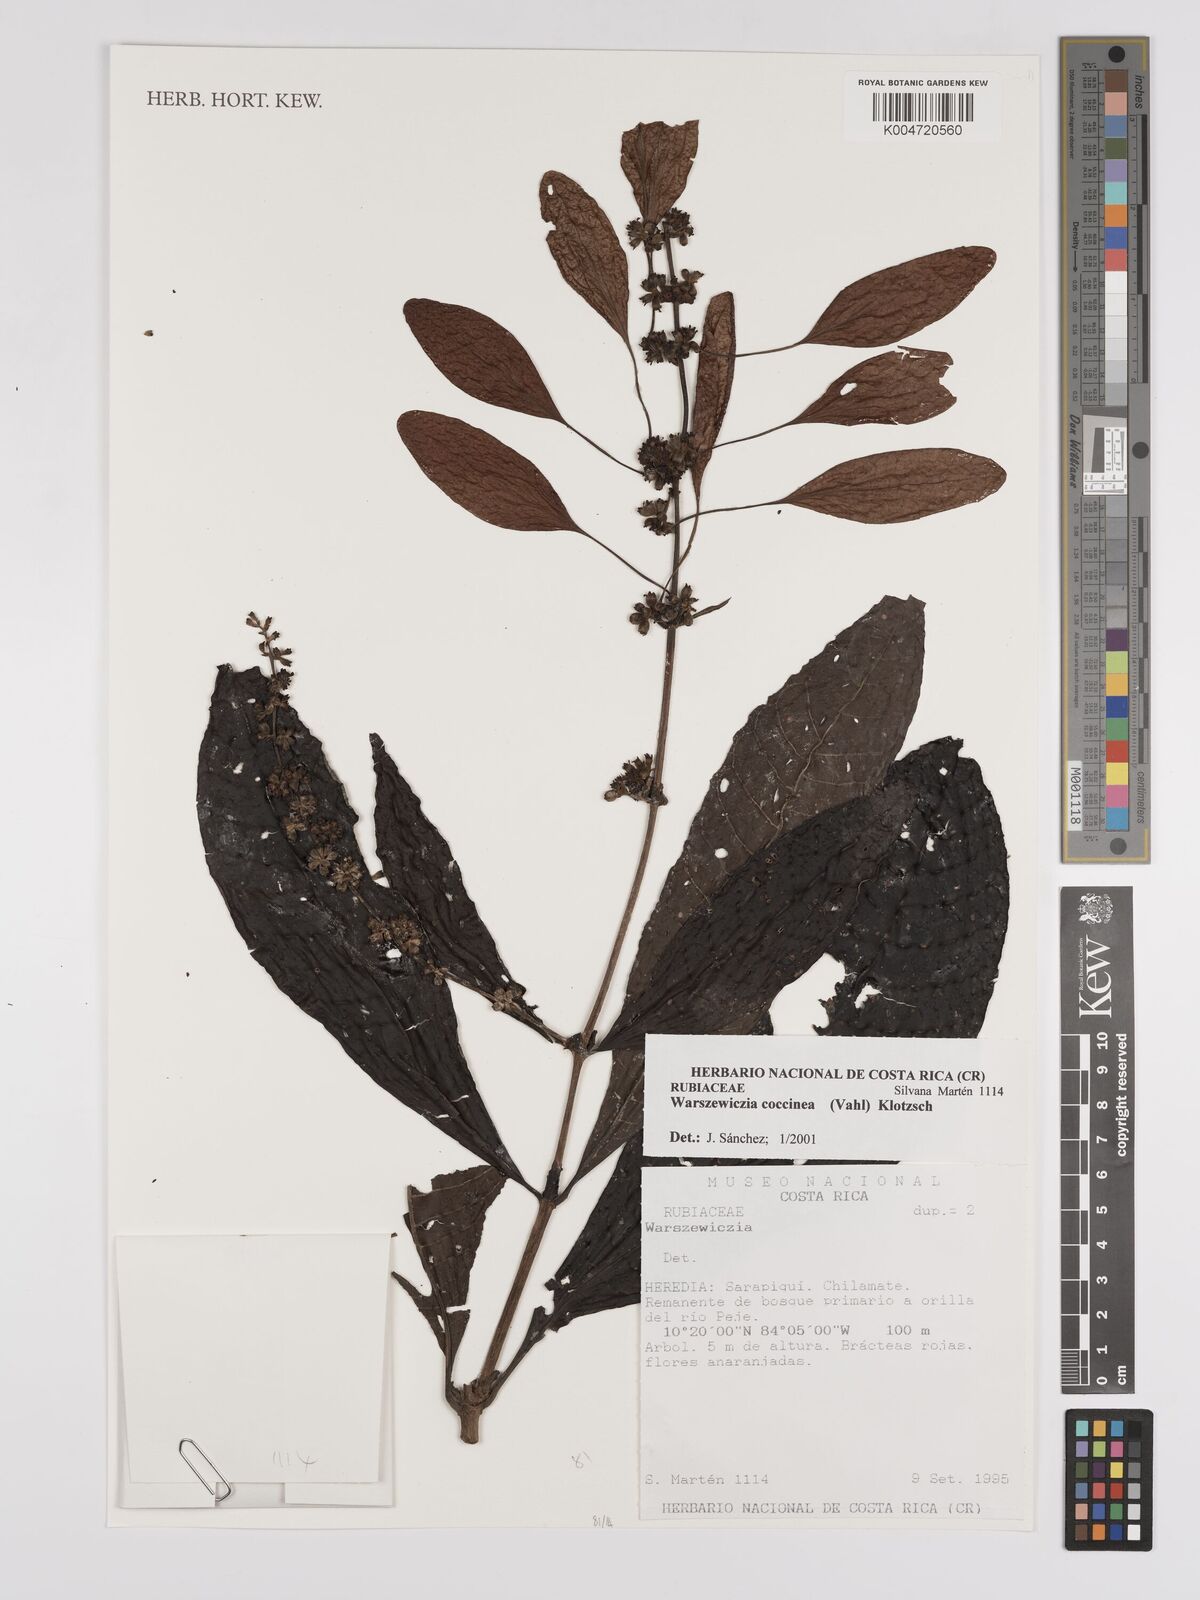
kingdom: Plantae
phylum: Tracheophyta
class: Magnoliopsida
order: Gentianales
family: Rubiaceae
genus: Warszewiczia
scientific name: Warszewiczia coccinea
